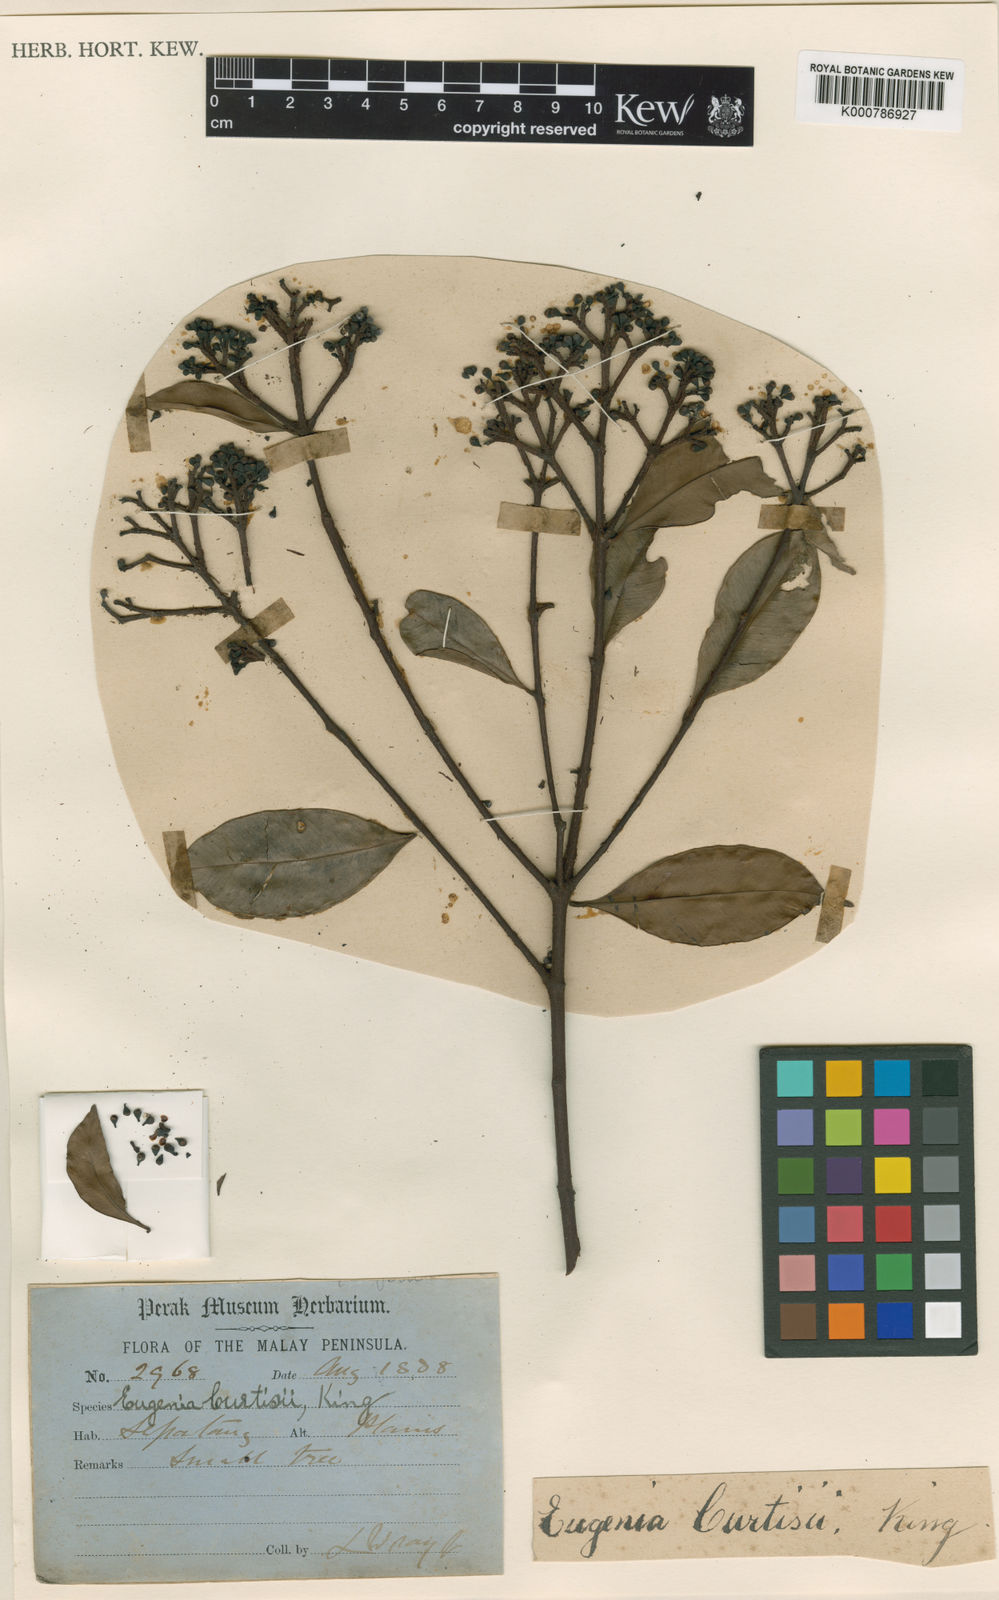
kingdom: Plantae
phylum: Tracheophyta
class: Magnoliopsida
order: Myrtales
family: Myrtaceae
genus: Syzygium
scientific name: Syzygium curtisii
